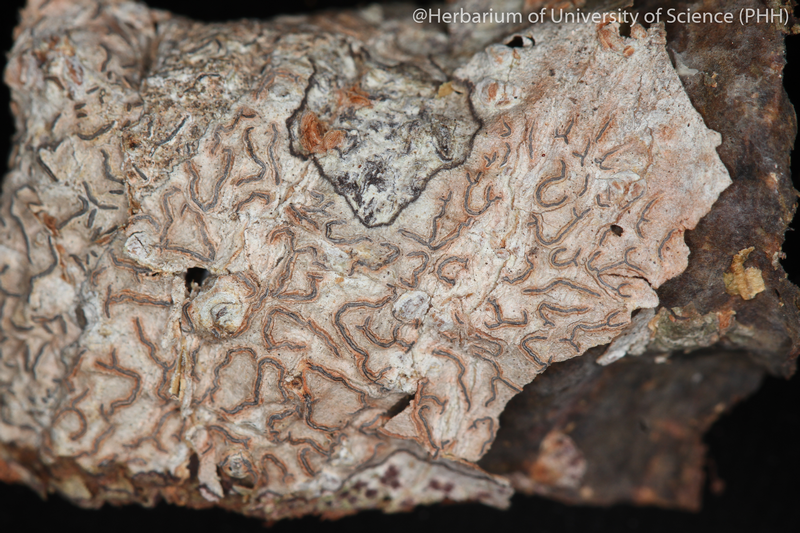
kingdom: Fungi
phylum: Ascomycota
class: Lecanoromycetes
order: Ostropales
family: Graphidaceae
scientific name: Graphidaceae
